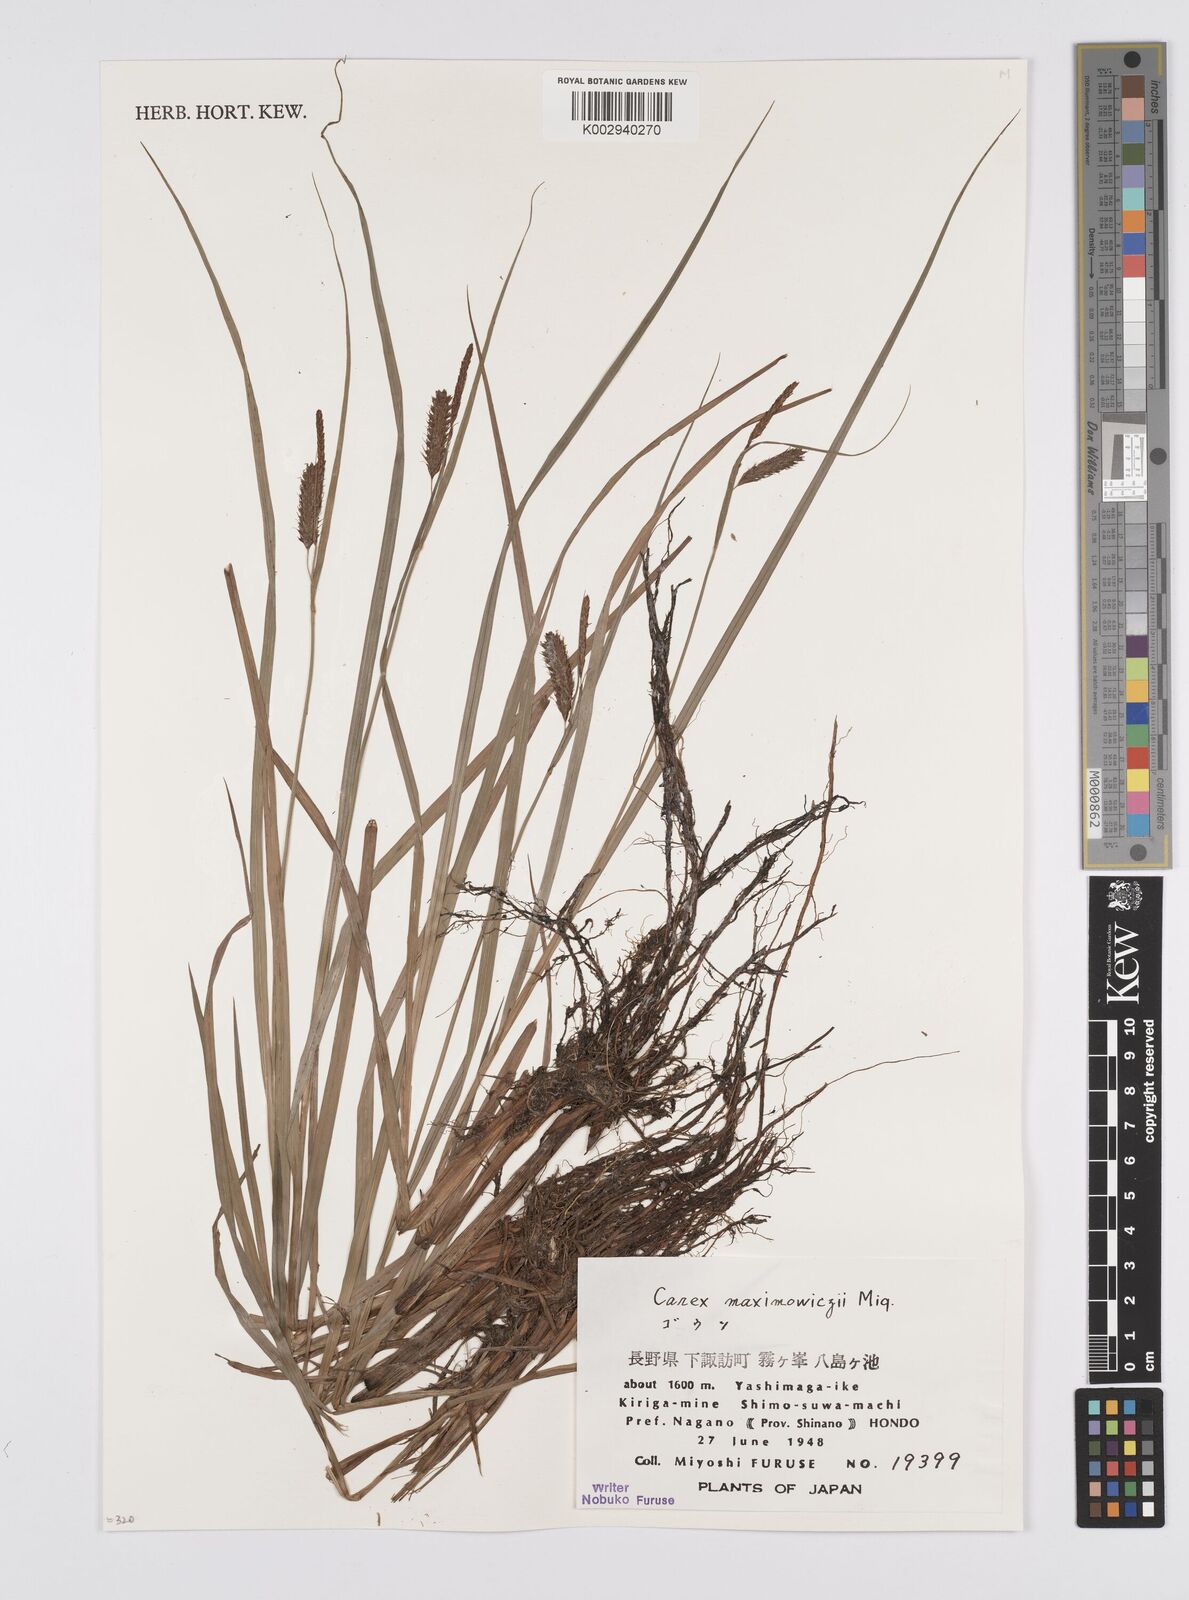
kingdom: Plantae
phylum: Tracheophyta
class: Liliopsida
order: Poales
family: Cyperaceae
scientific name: Cyperaceae
